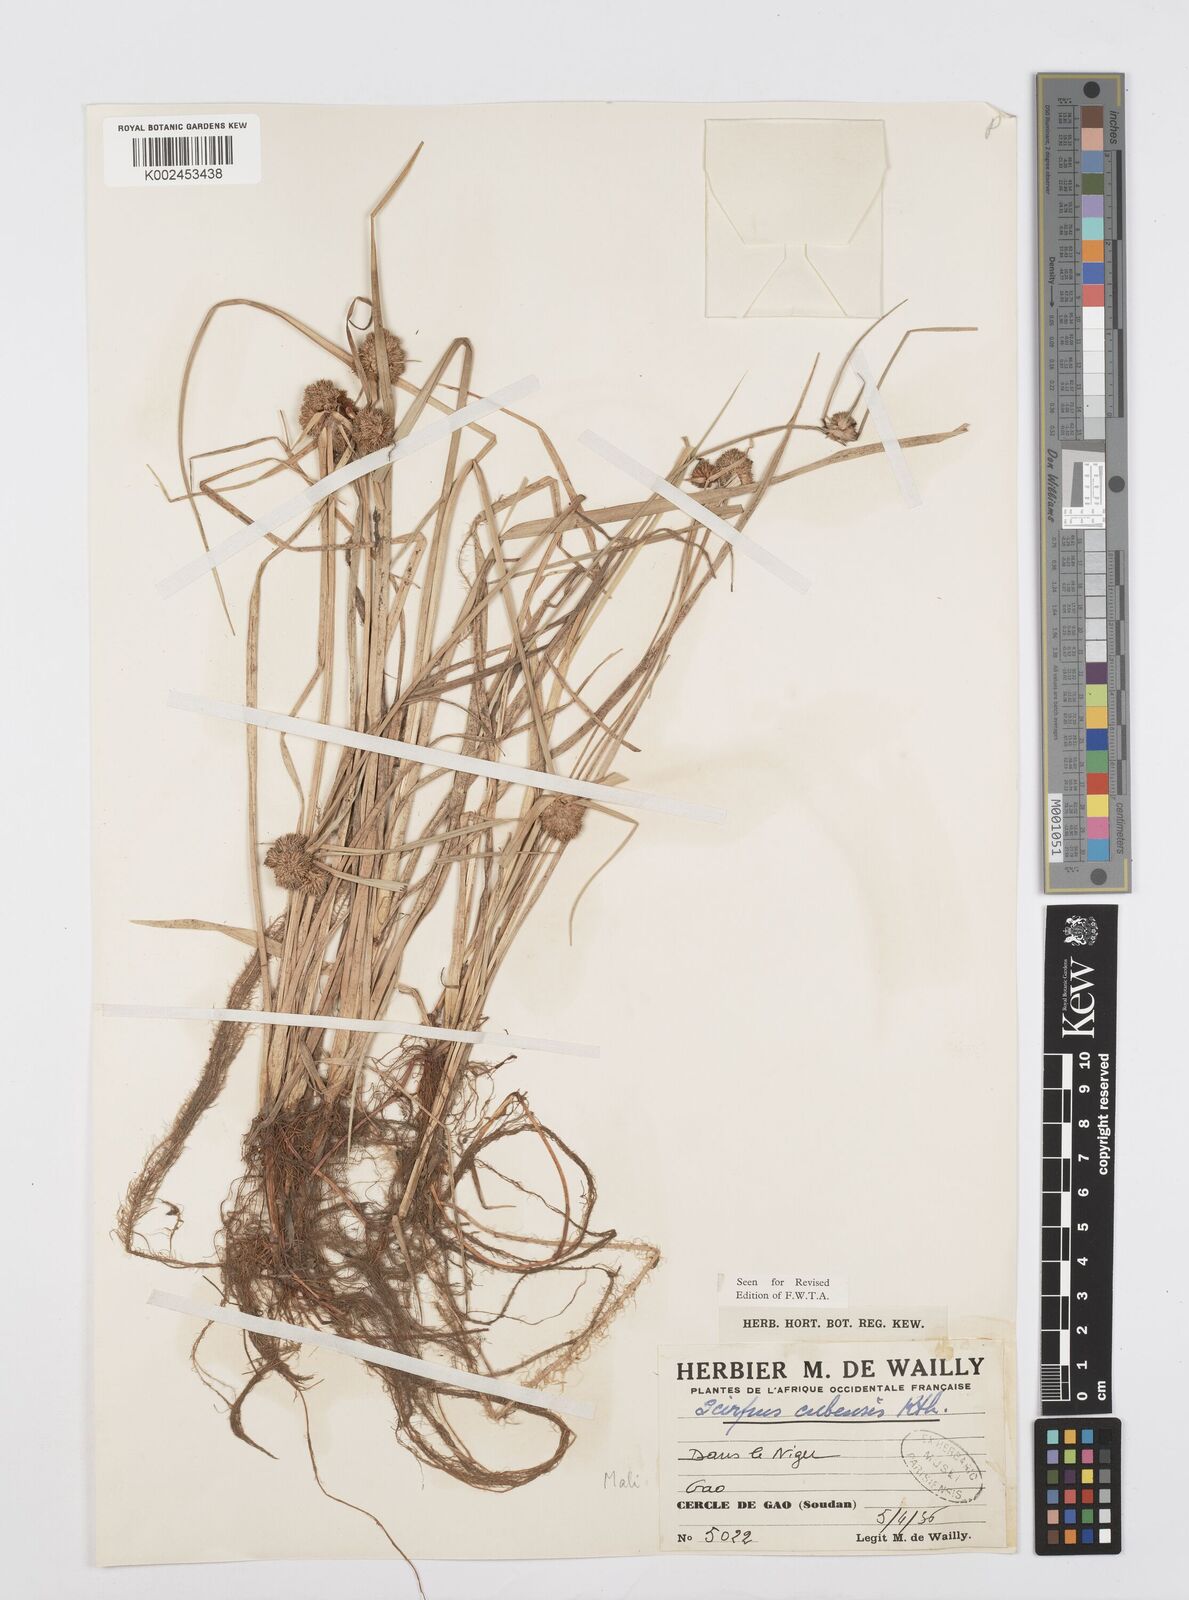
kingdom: Plantae
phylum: Tracheophyta
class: Liliopsida
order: Poales
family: Cyperaceae
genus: Cyperus
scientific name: Cyperus elegans
